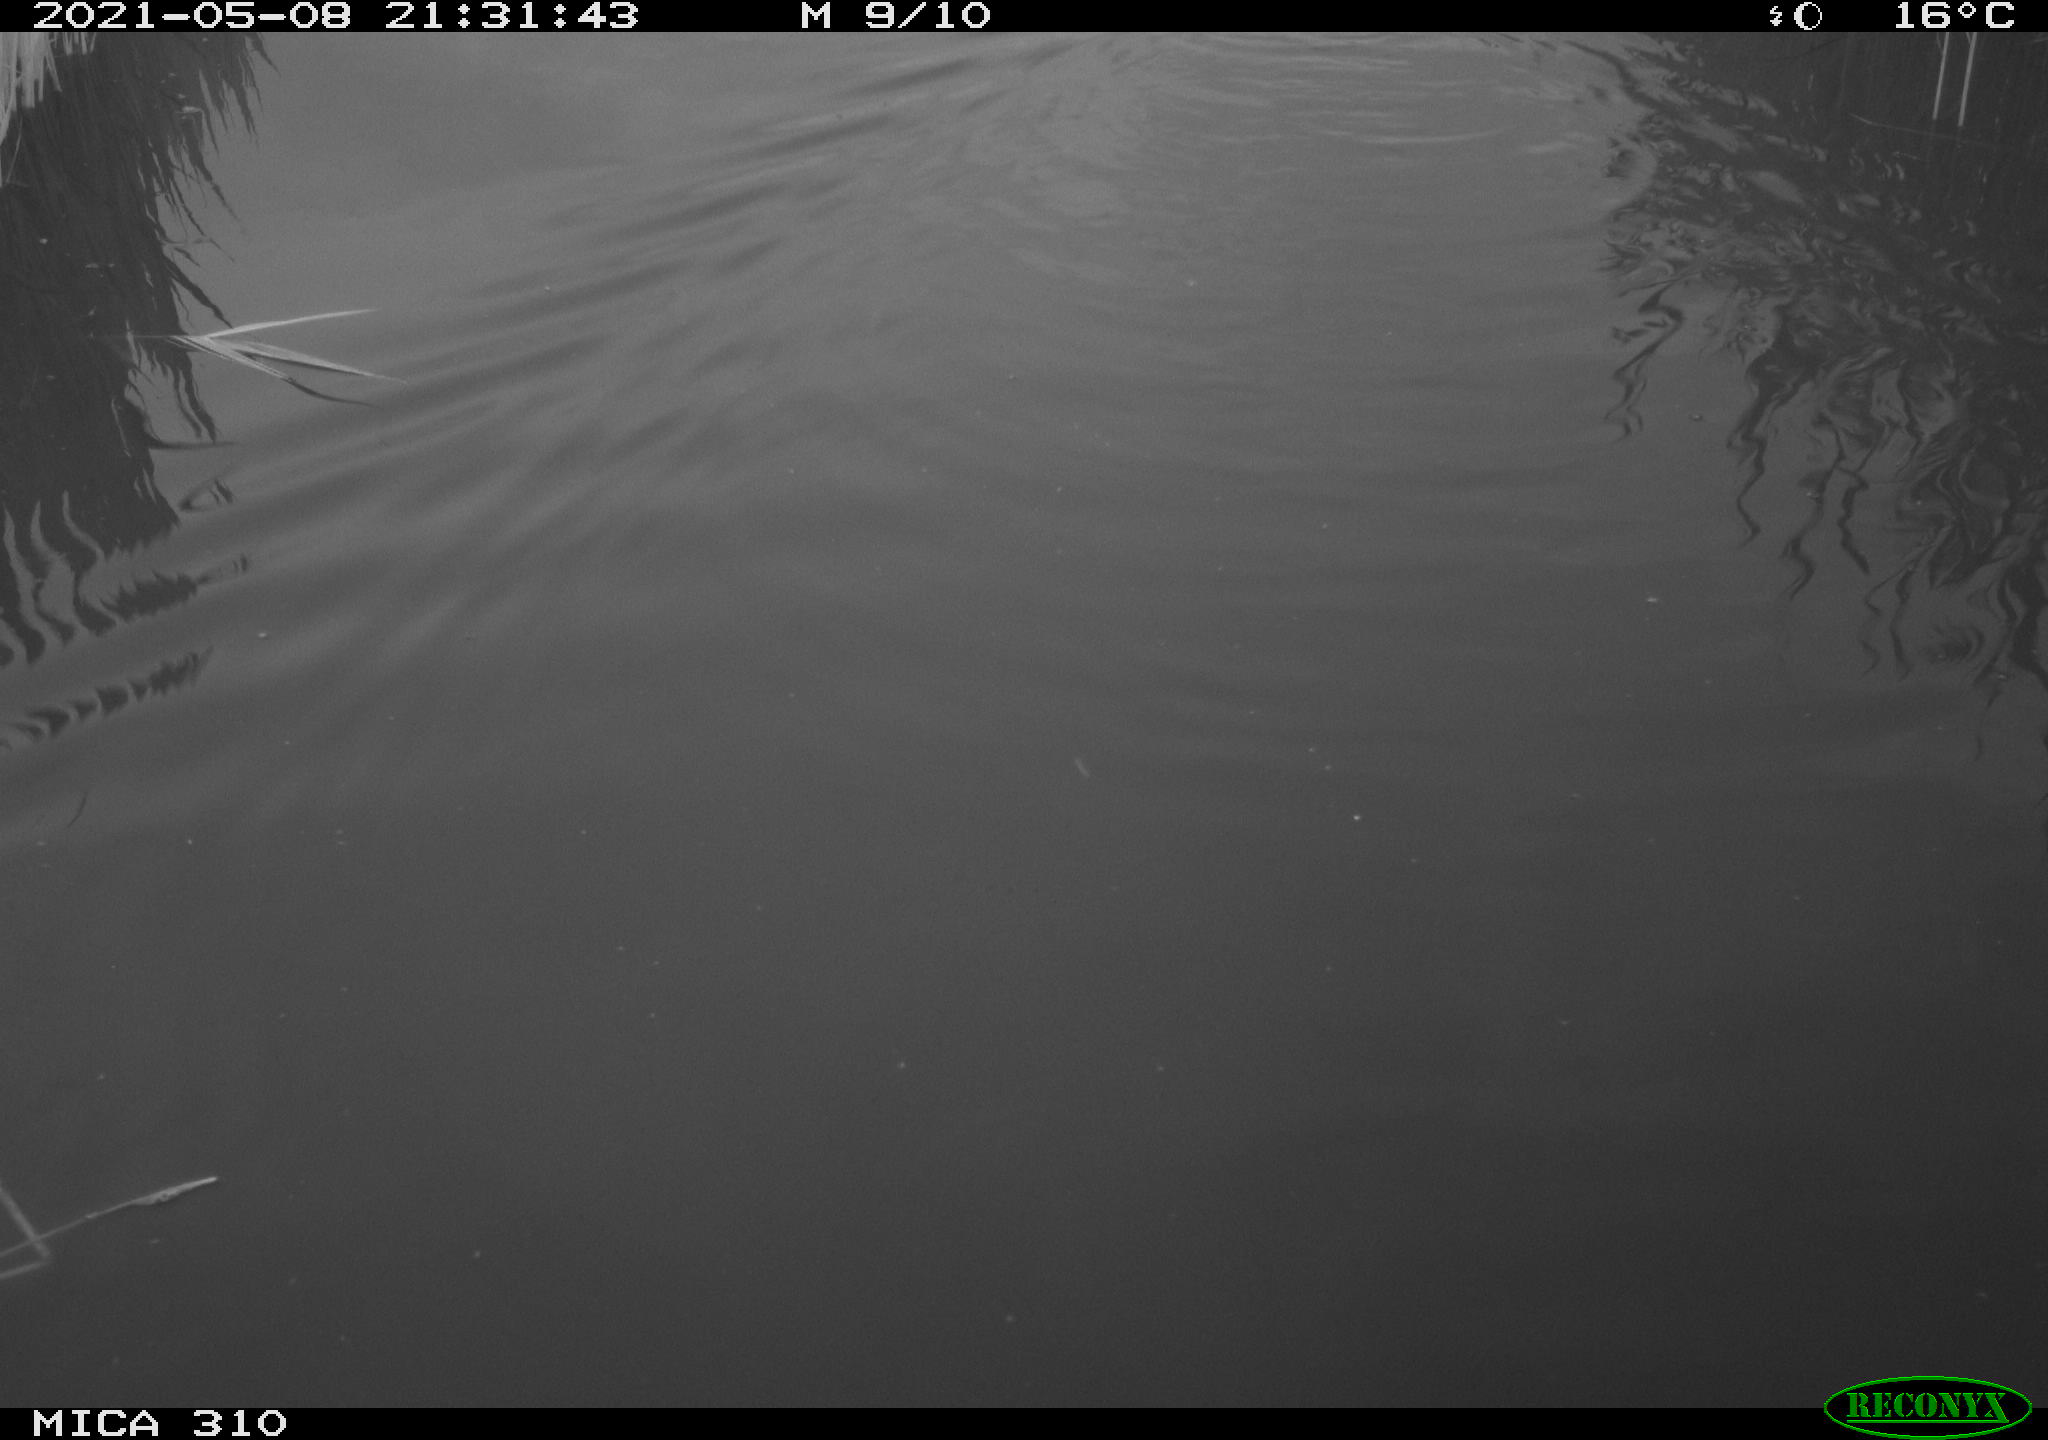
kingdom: Animalia
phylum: Chordata
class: Mammalia
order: Rodentia
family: Cricetidae
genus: Ondatra
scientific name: Ondatra zibethicus
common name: Muskrat
